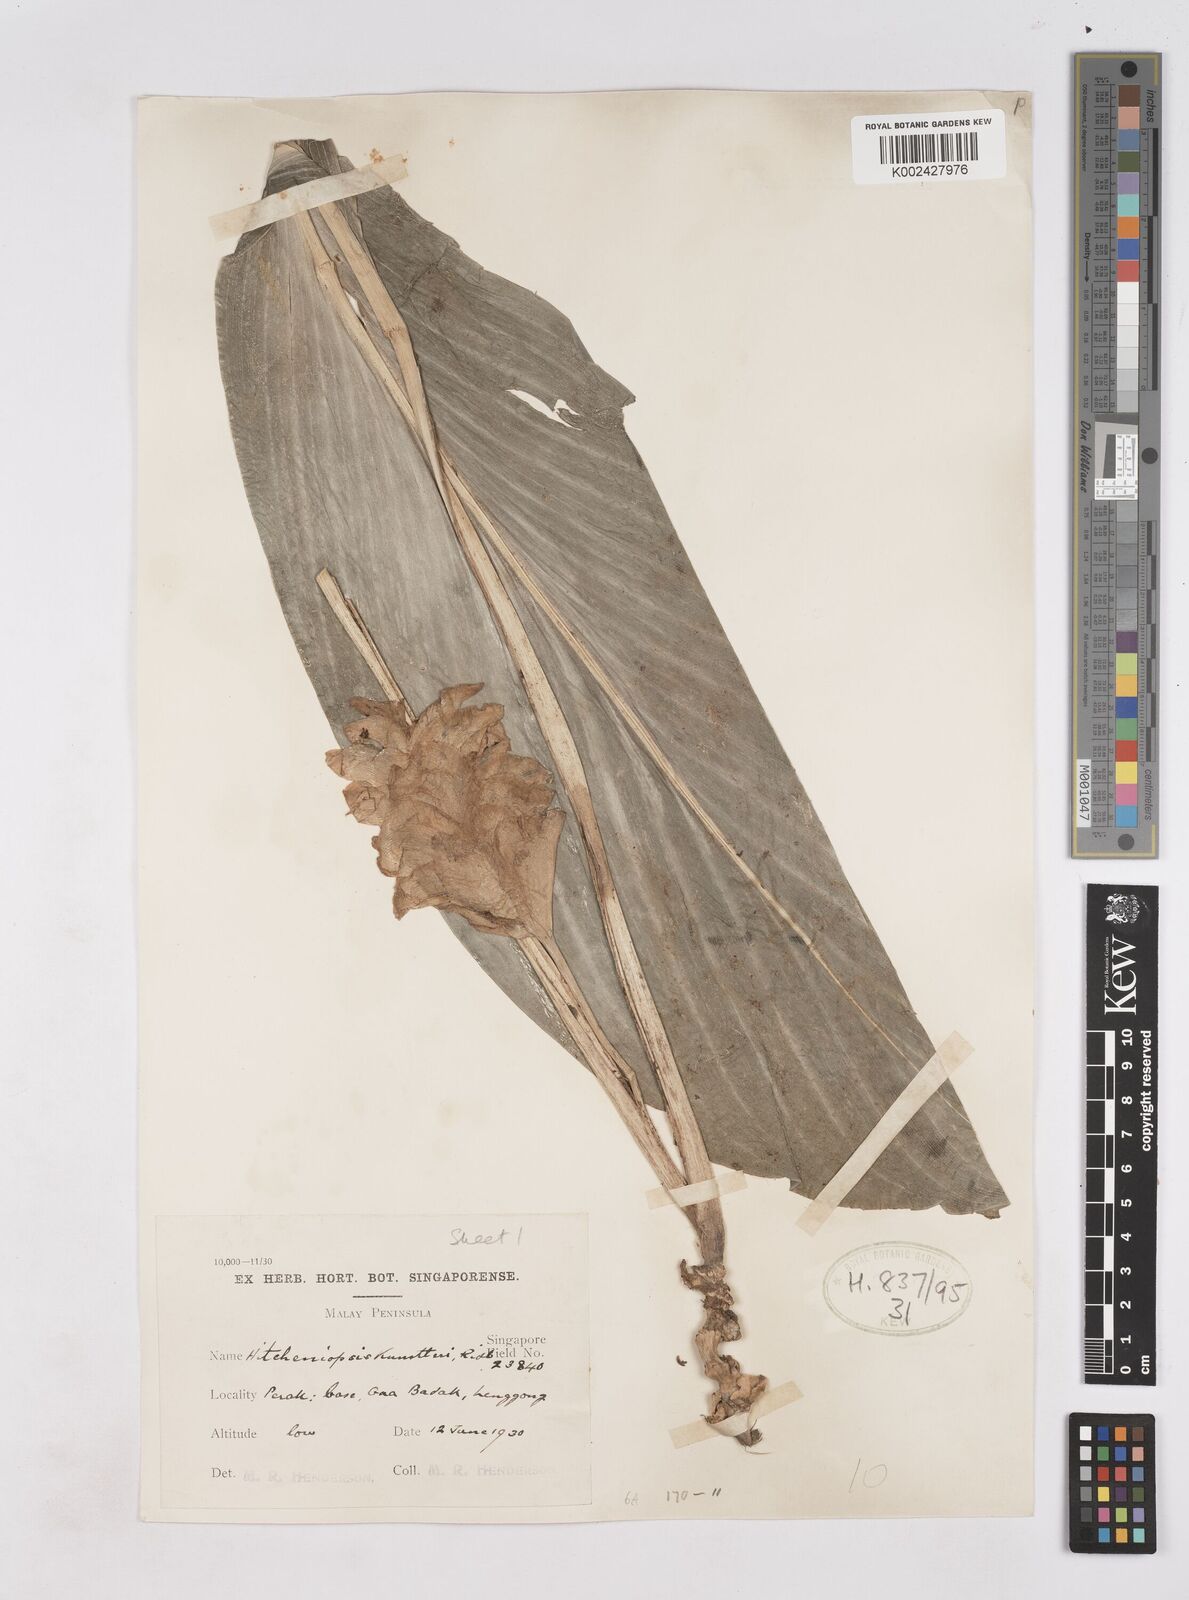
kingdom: Plantae
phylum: Tracheophyta
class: Liliopsida
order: Zingiberales
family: Zingiberaceae
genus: Scaphochlamys
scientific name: Scaphochlamys
